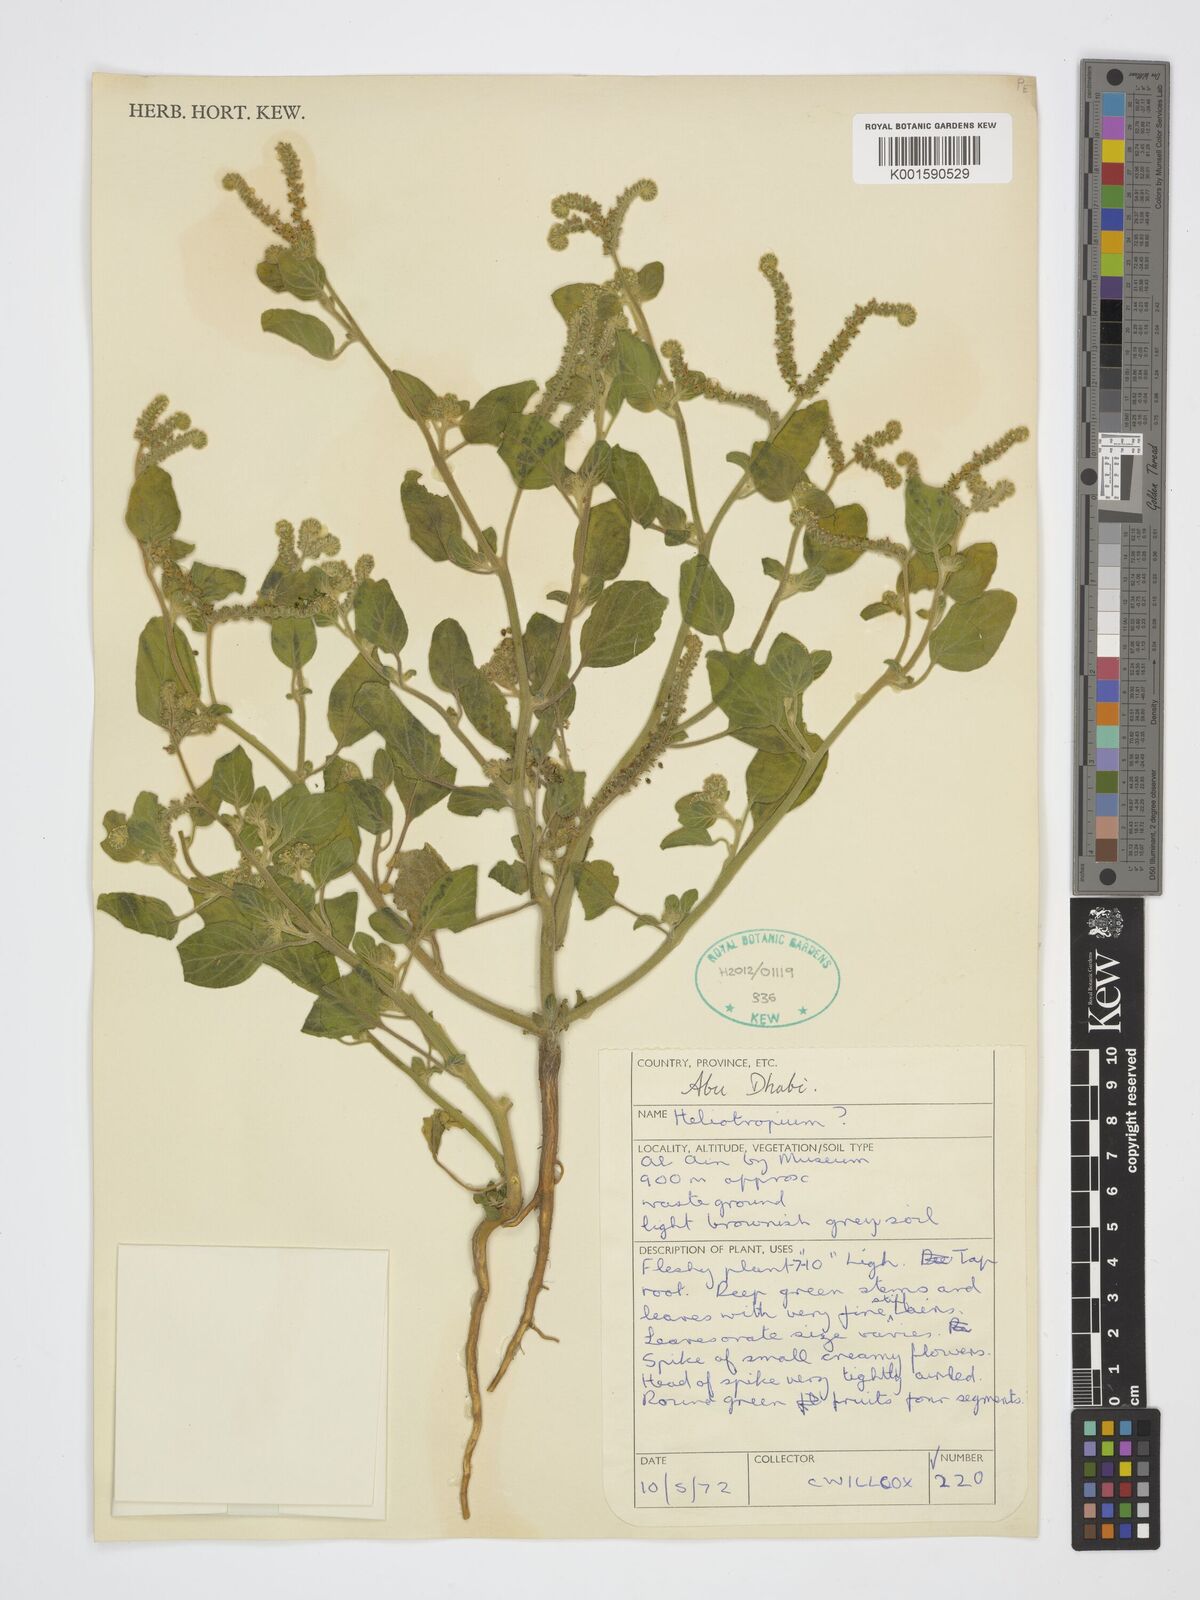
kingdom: Plantae
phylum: Tracheophyta
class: Magnoliopsida
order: Boraginales
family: Heliotropiaceae
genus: Heliotropium
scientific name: Heliotropium
